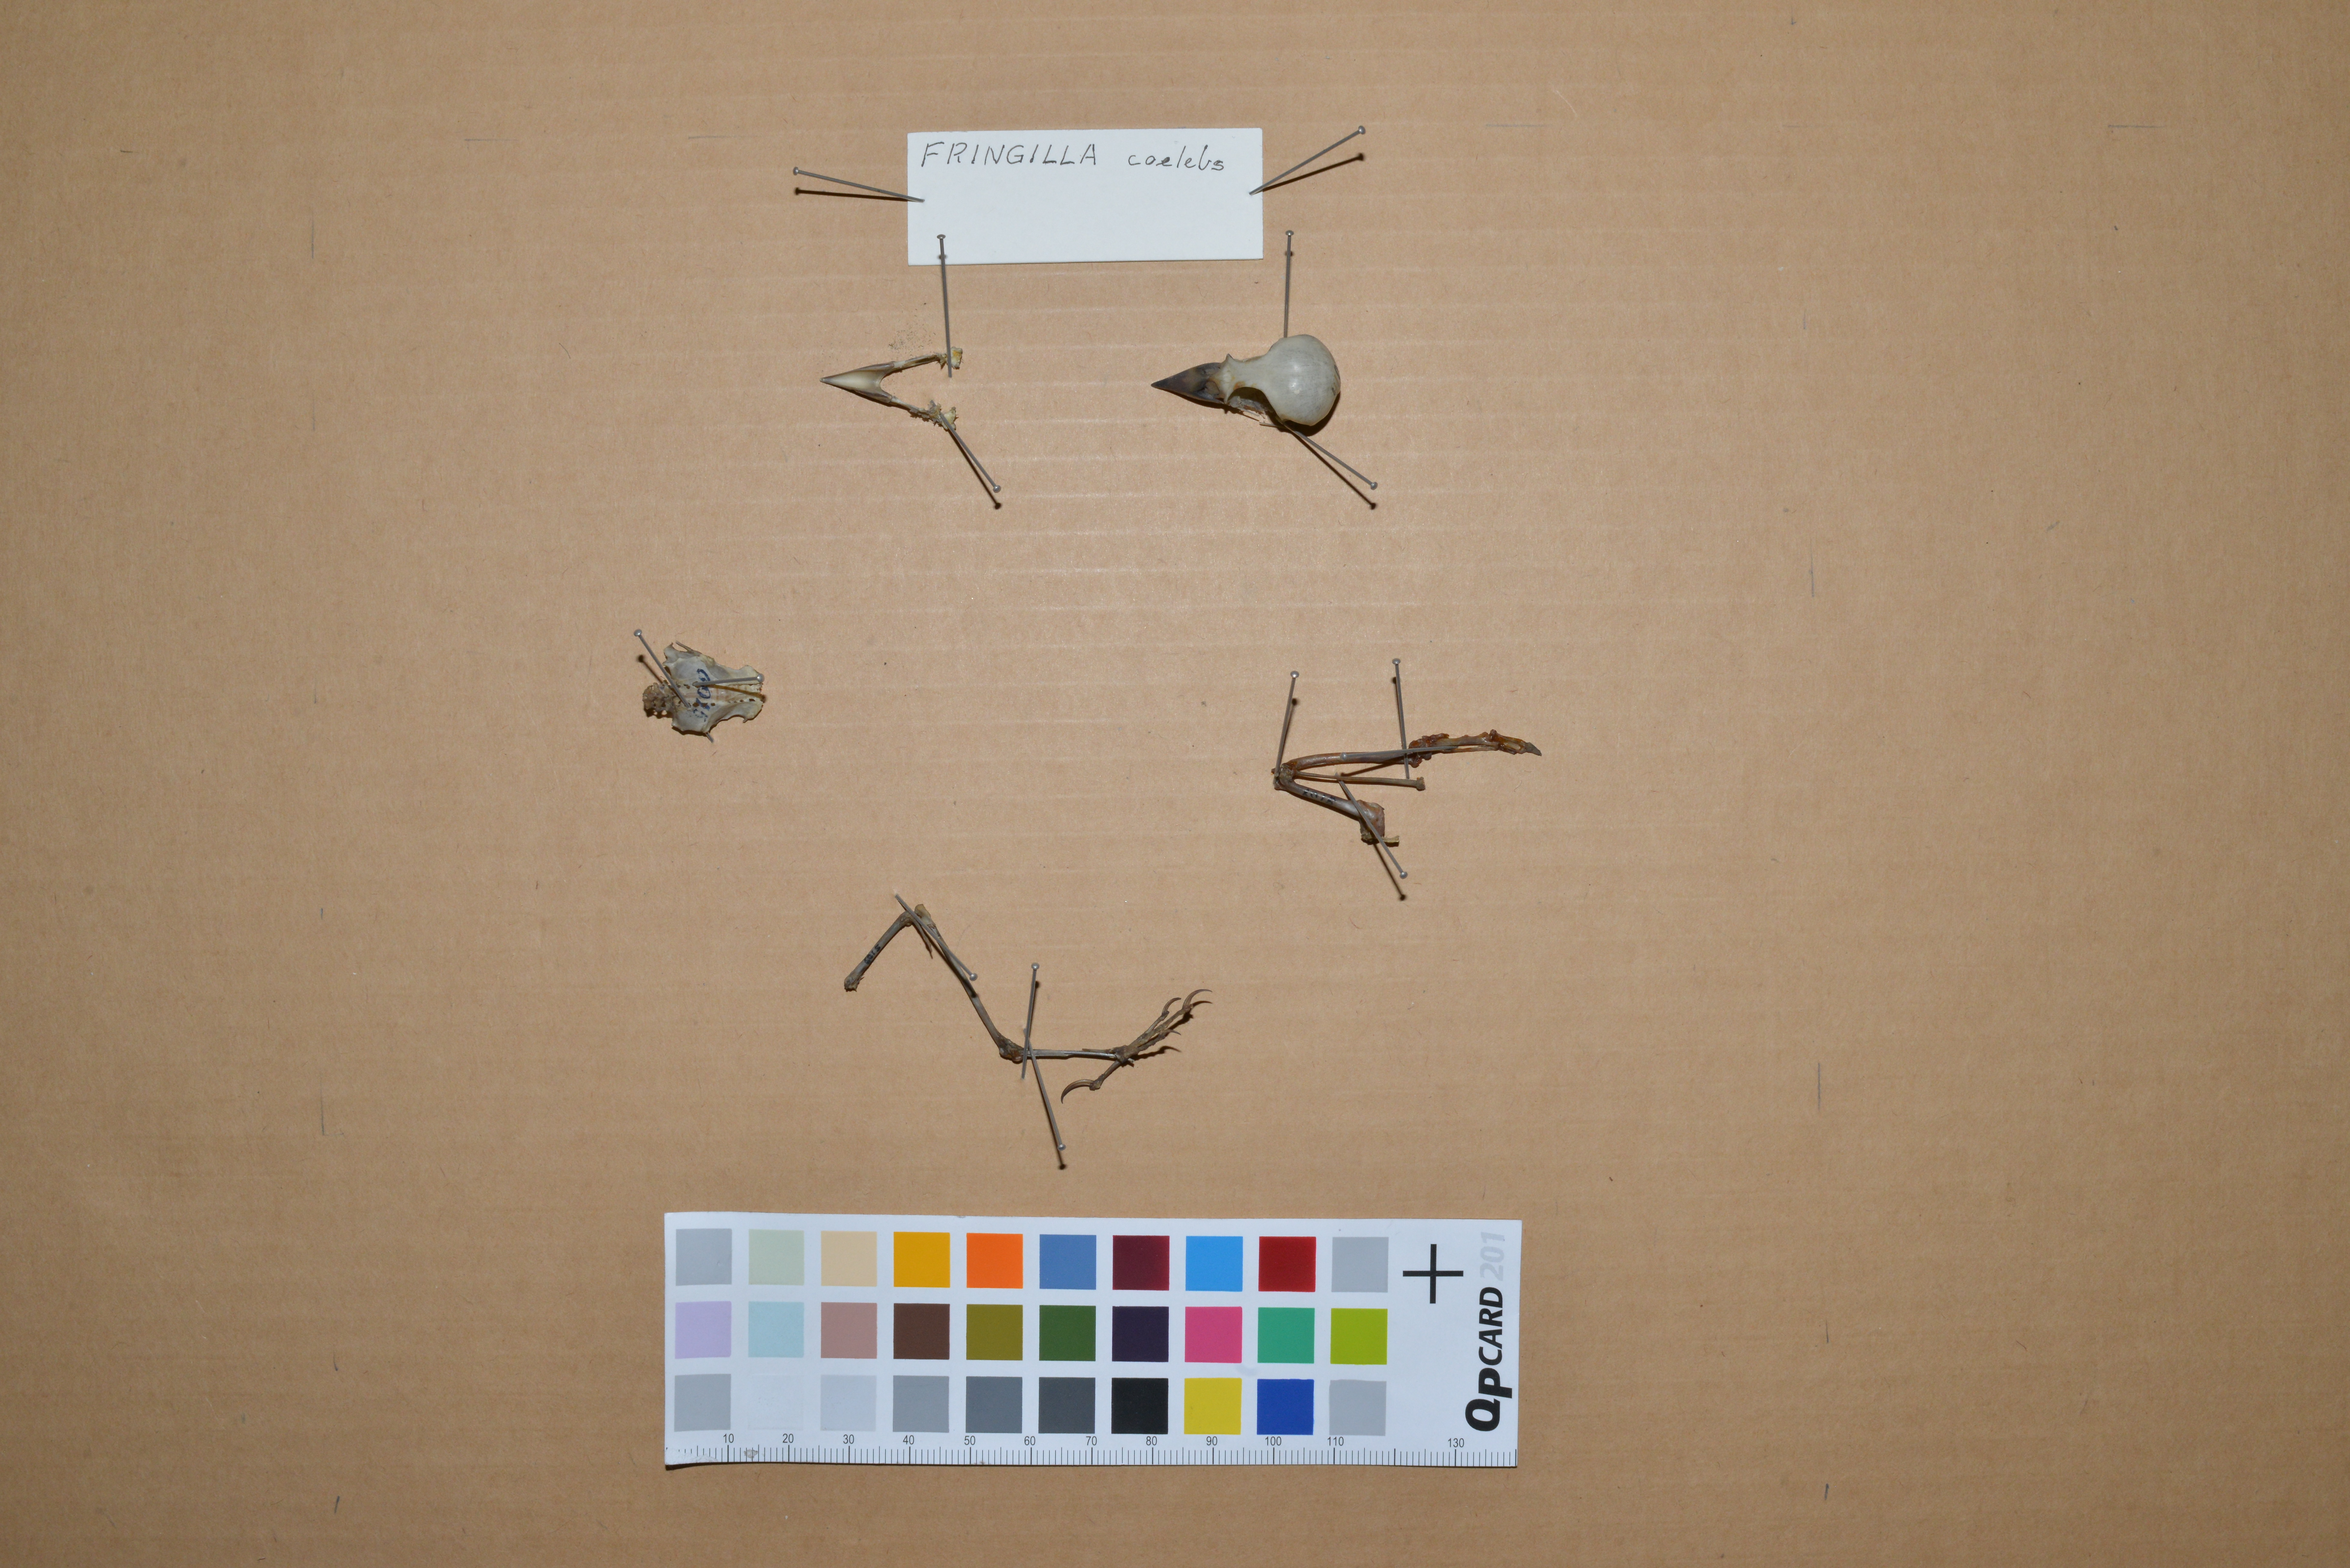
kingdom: Animalia
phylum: Chordata
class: Aves
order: Passeriformes
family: Fringillidae
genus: Fringilla
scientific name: Fringilla coelebs
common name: Common chaffinch
